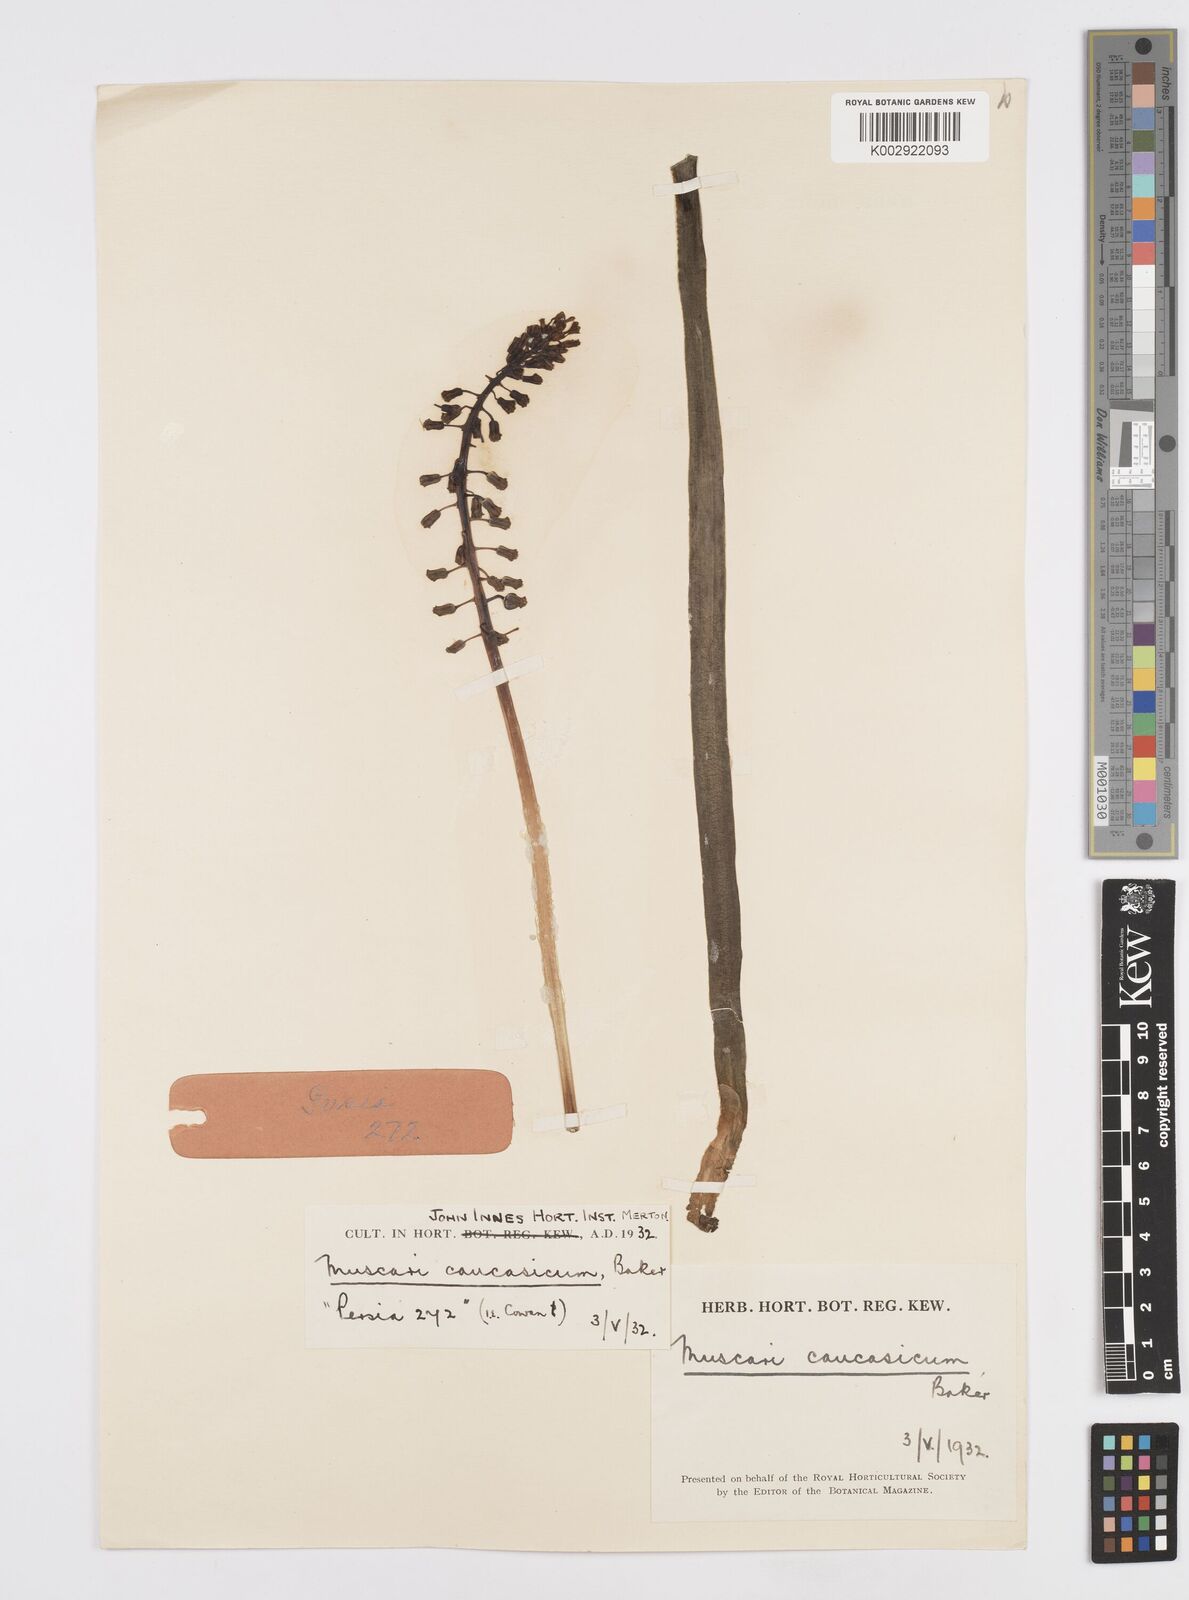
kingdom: Plantae
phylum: Tracheophyta
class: Liliopsida
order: Asparagales
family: Asparagaceae
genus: Muscari
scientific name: Muscari caucasicum
